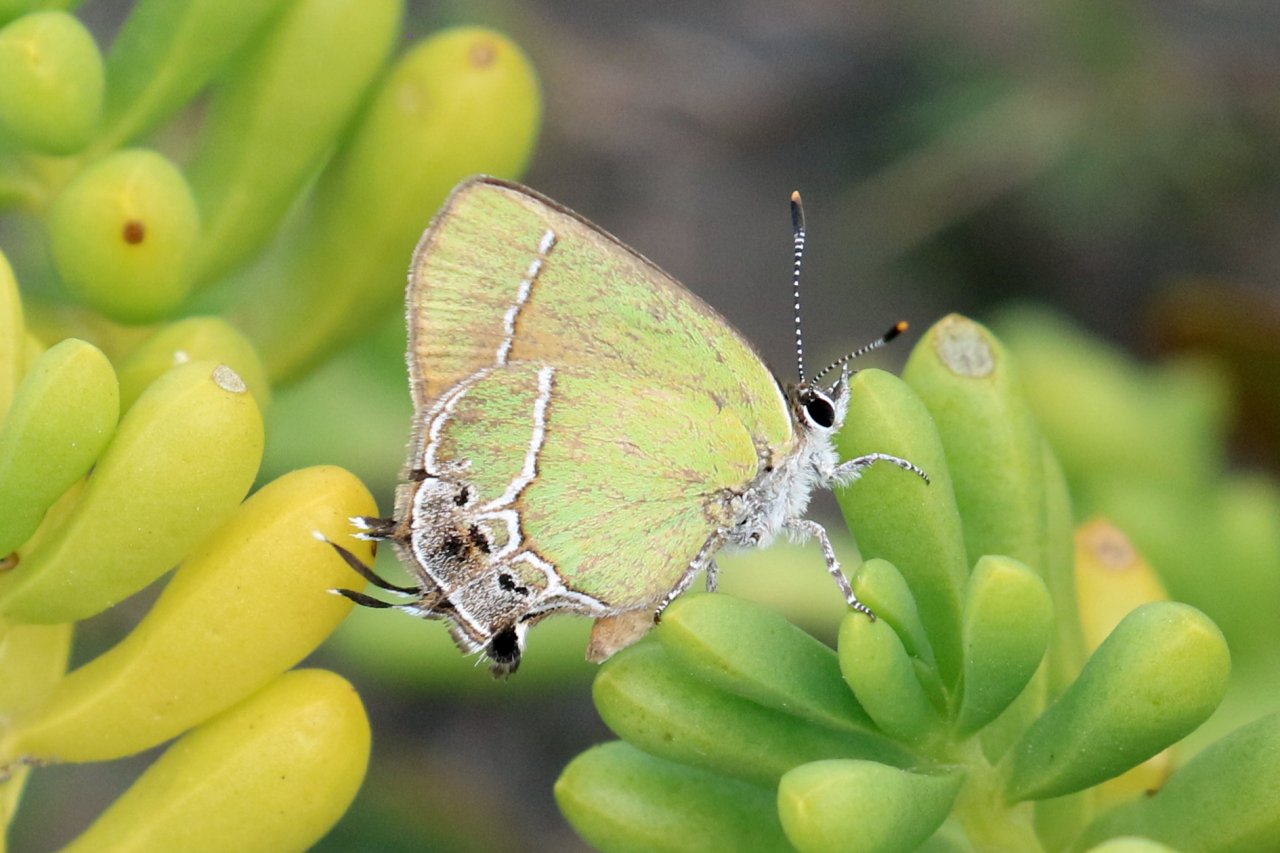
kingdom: Animalia
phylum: Arthropoda
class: Insecta
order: Lepidoptera
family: Lycaenidae
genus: Xamia
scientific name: Xamia xami
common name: Xami Hairstreak
